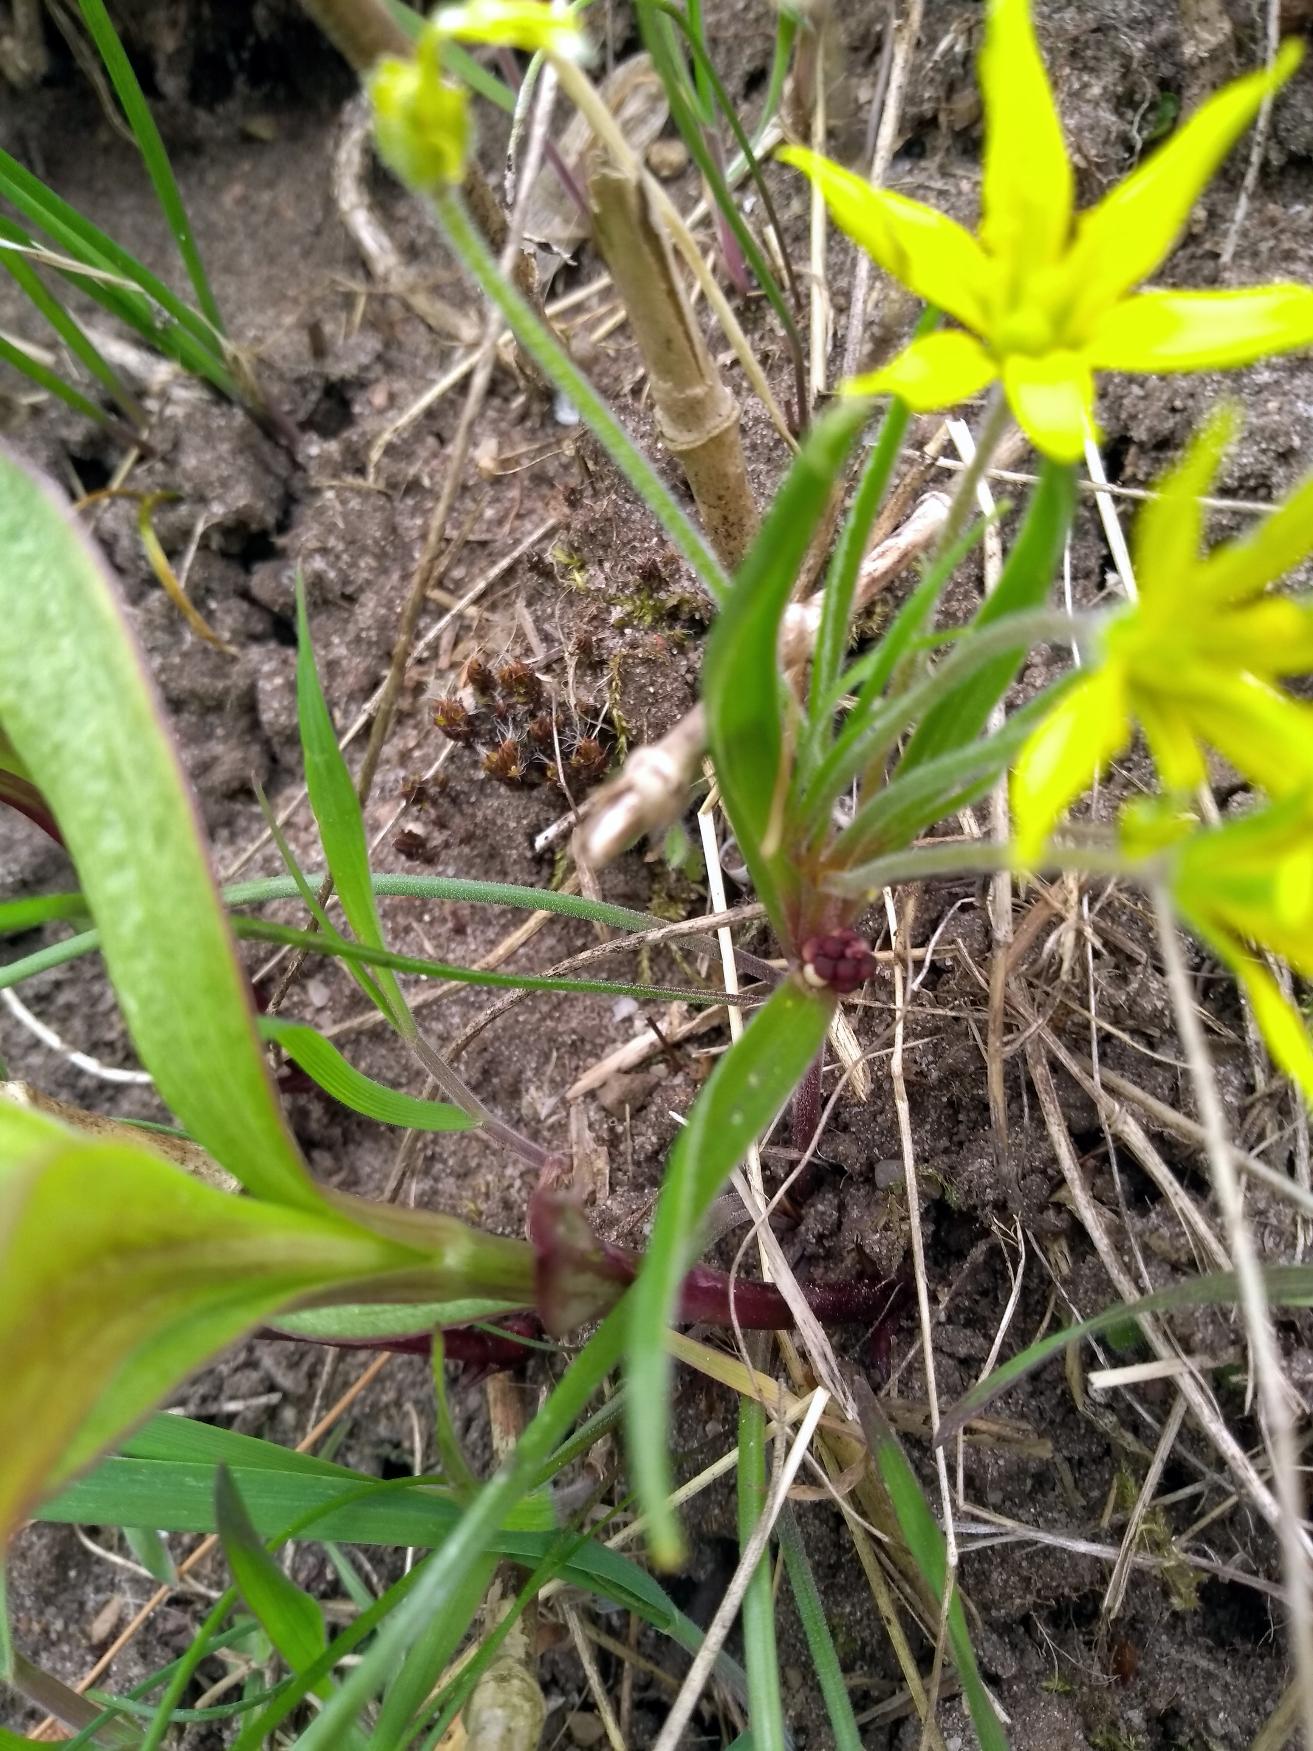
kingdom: Plantae
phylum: Tracheophyta
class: Liliopsida
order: Liliales
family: Liliaceae
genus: Gagea
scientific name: Gagea villosa
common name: Ager-guldstjerne
